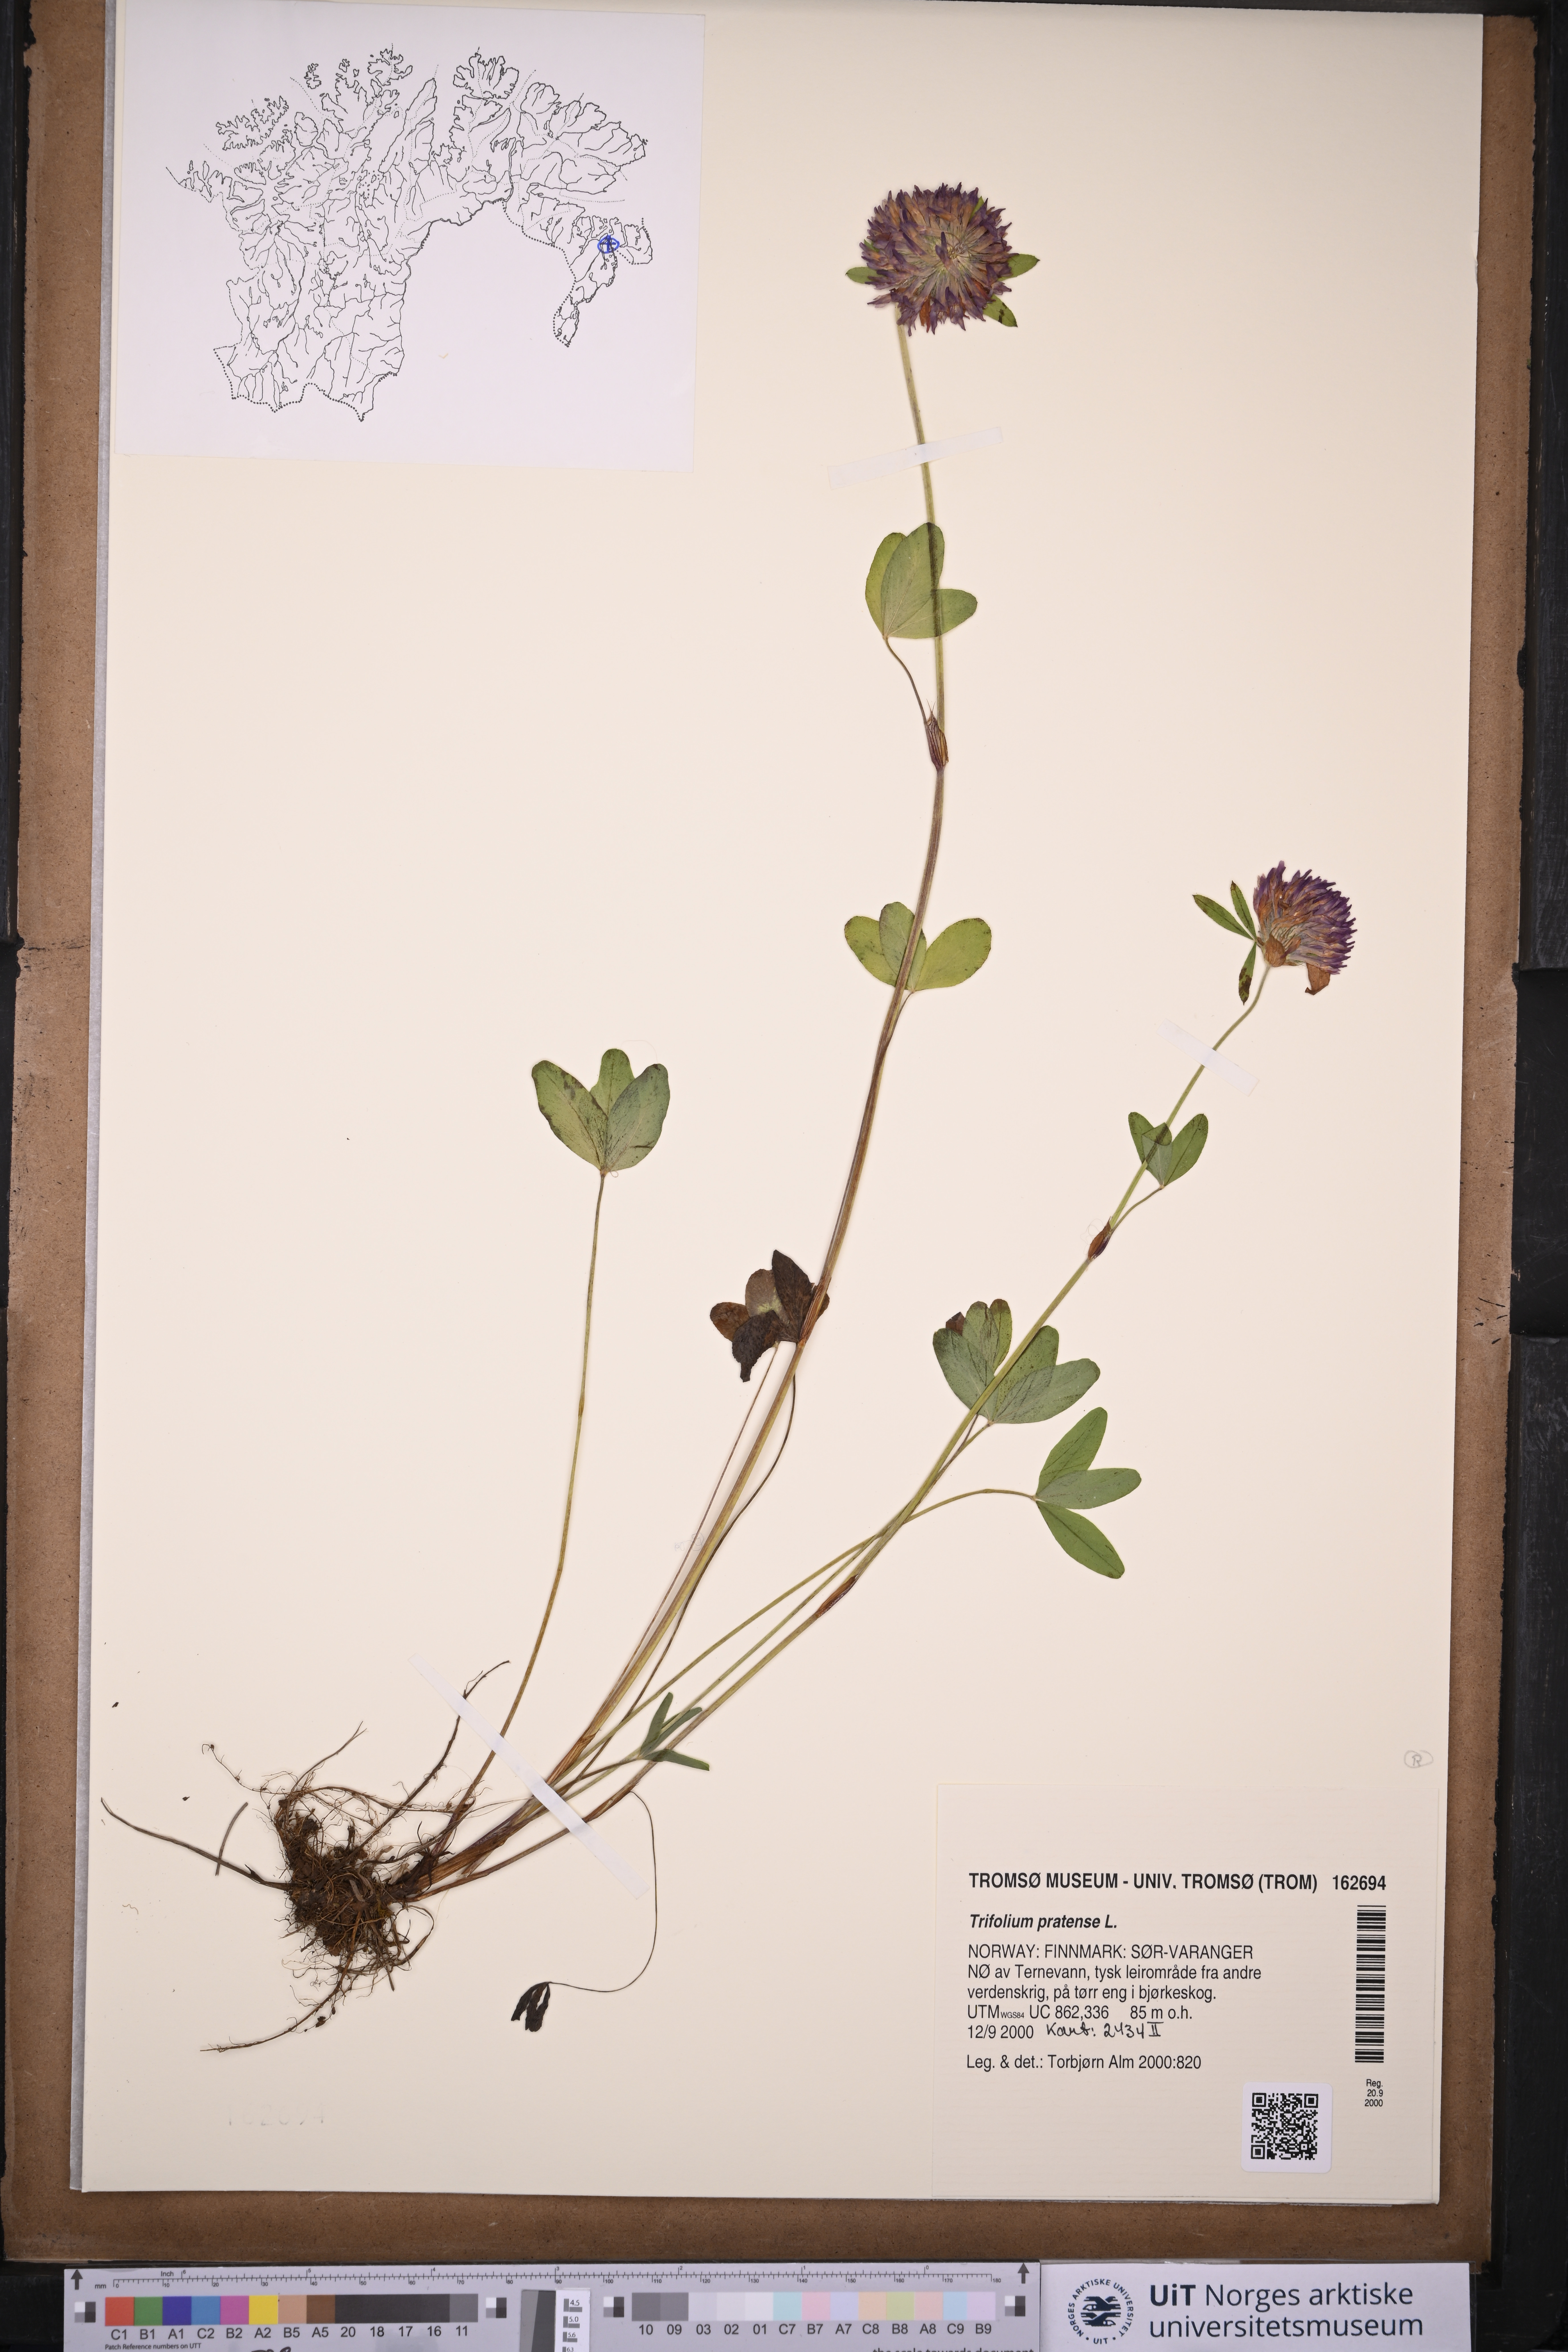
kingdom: Plantae
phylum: Tracheophyta
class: Magnoliopsida
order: Fabales
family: Fabaceae
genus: Trifolium
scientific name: Trifolium pratense
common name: Red clover
